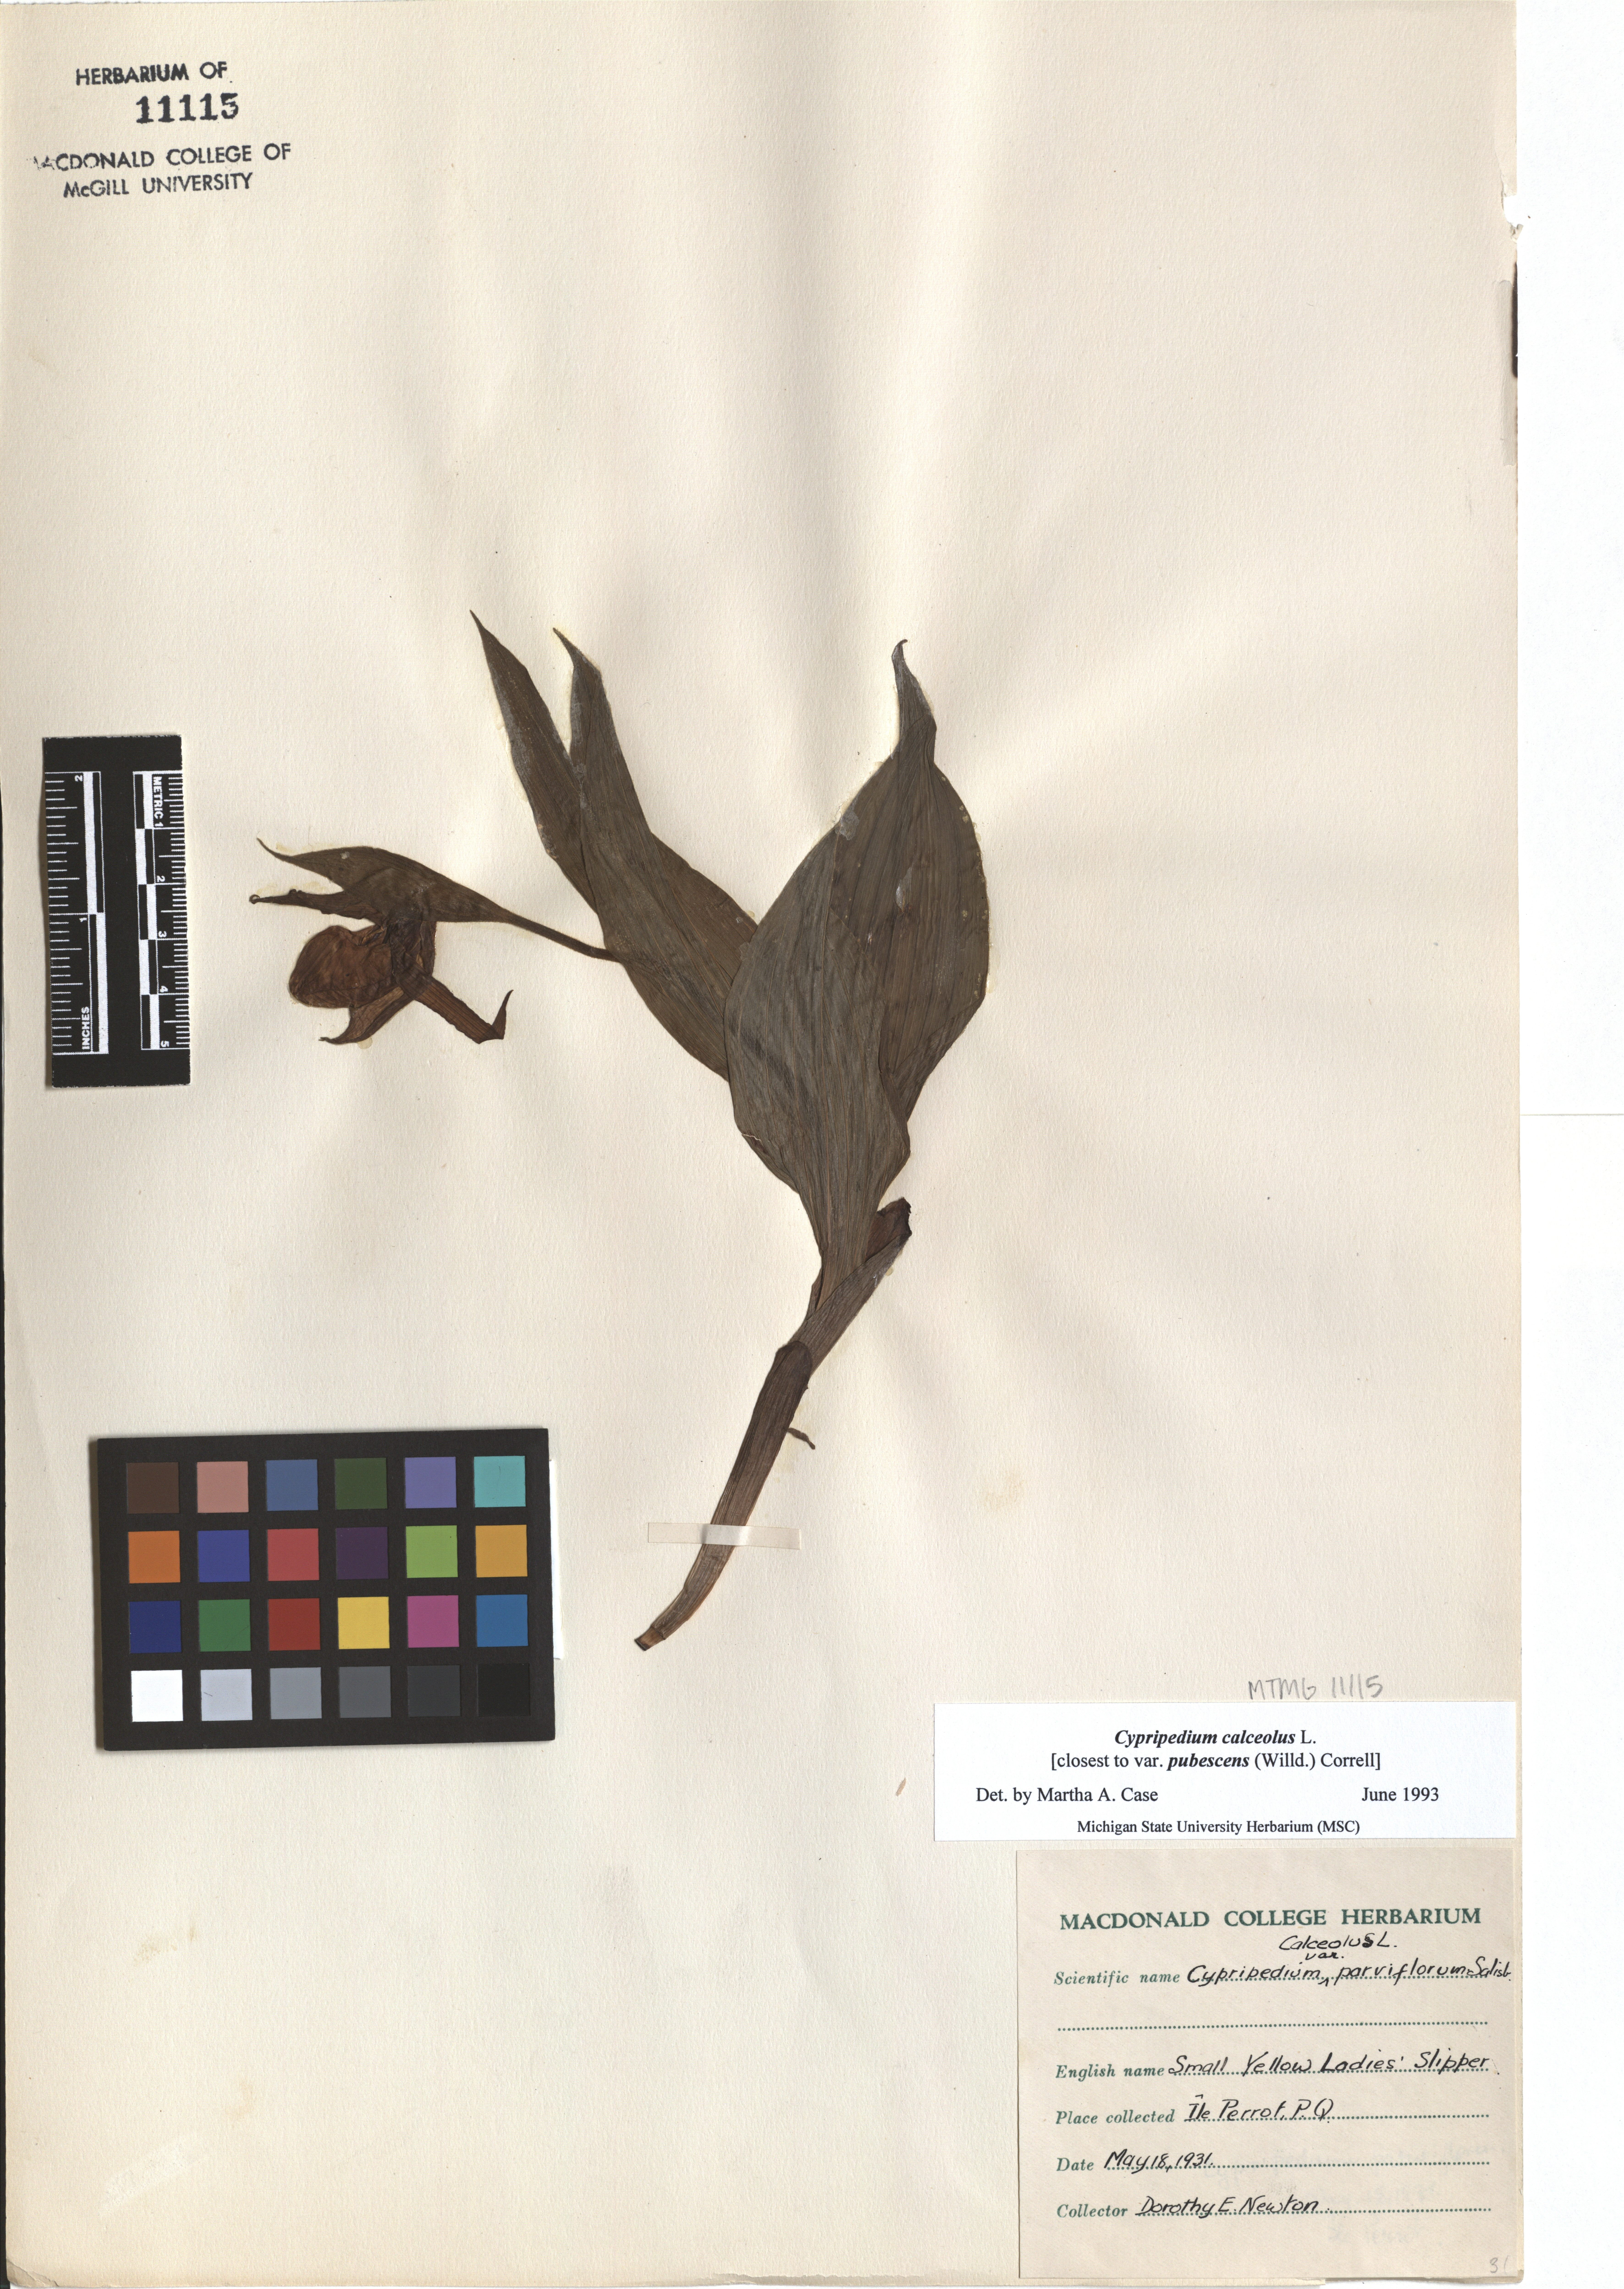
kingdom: Plantae
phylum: Tracheophyta
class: Liliopsida
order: Asparagales
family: Orchidaceae
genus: Cypripedium
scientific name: Cypripedium calceolus
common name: Lady's-slipper
